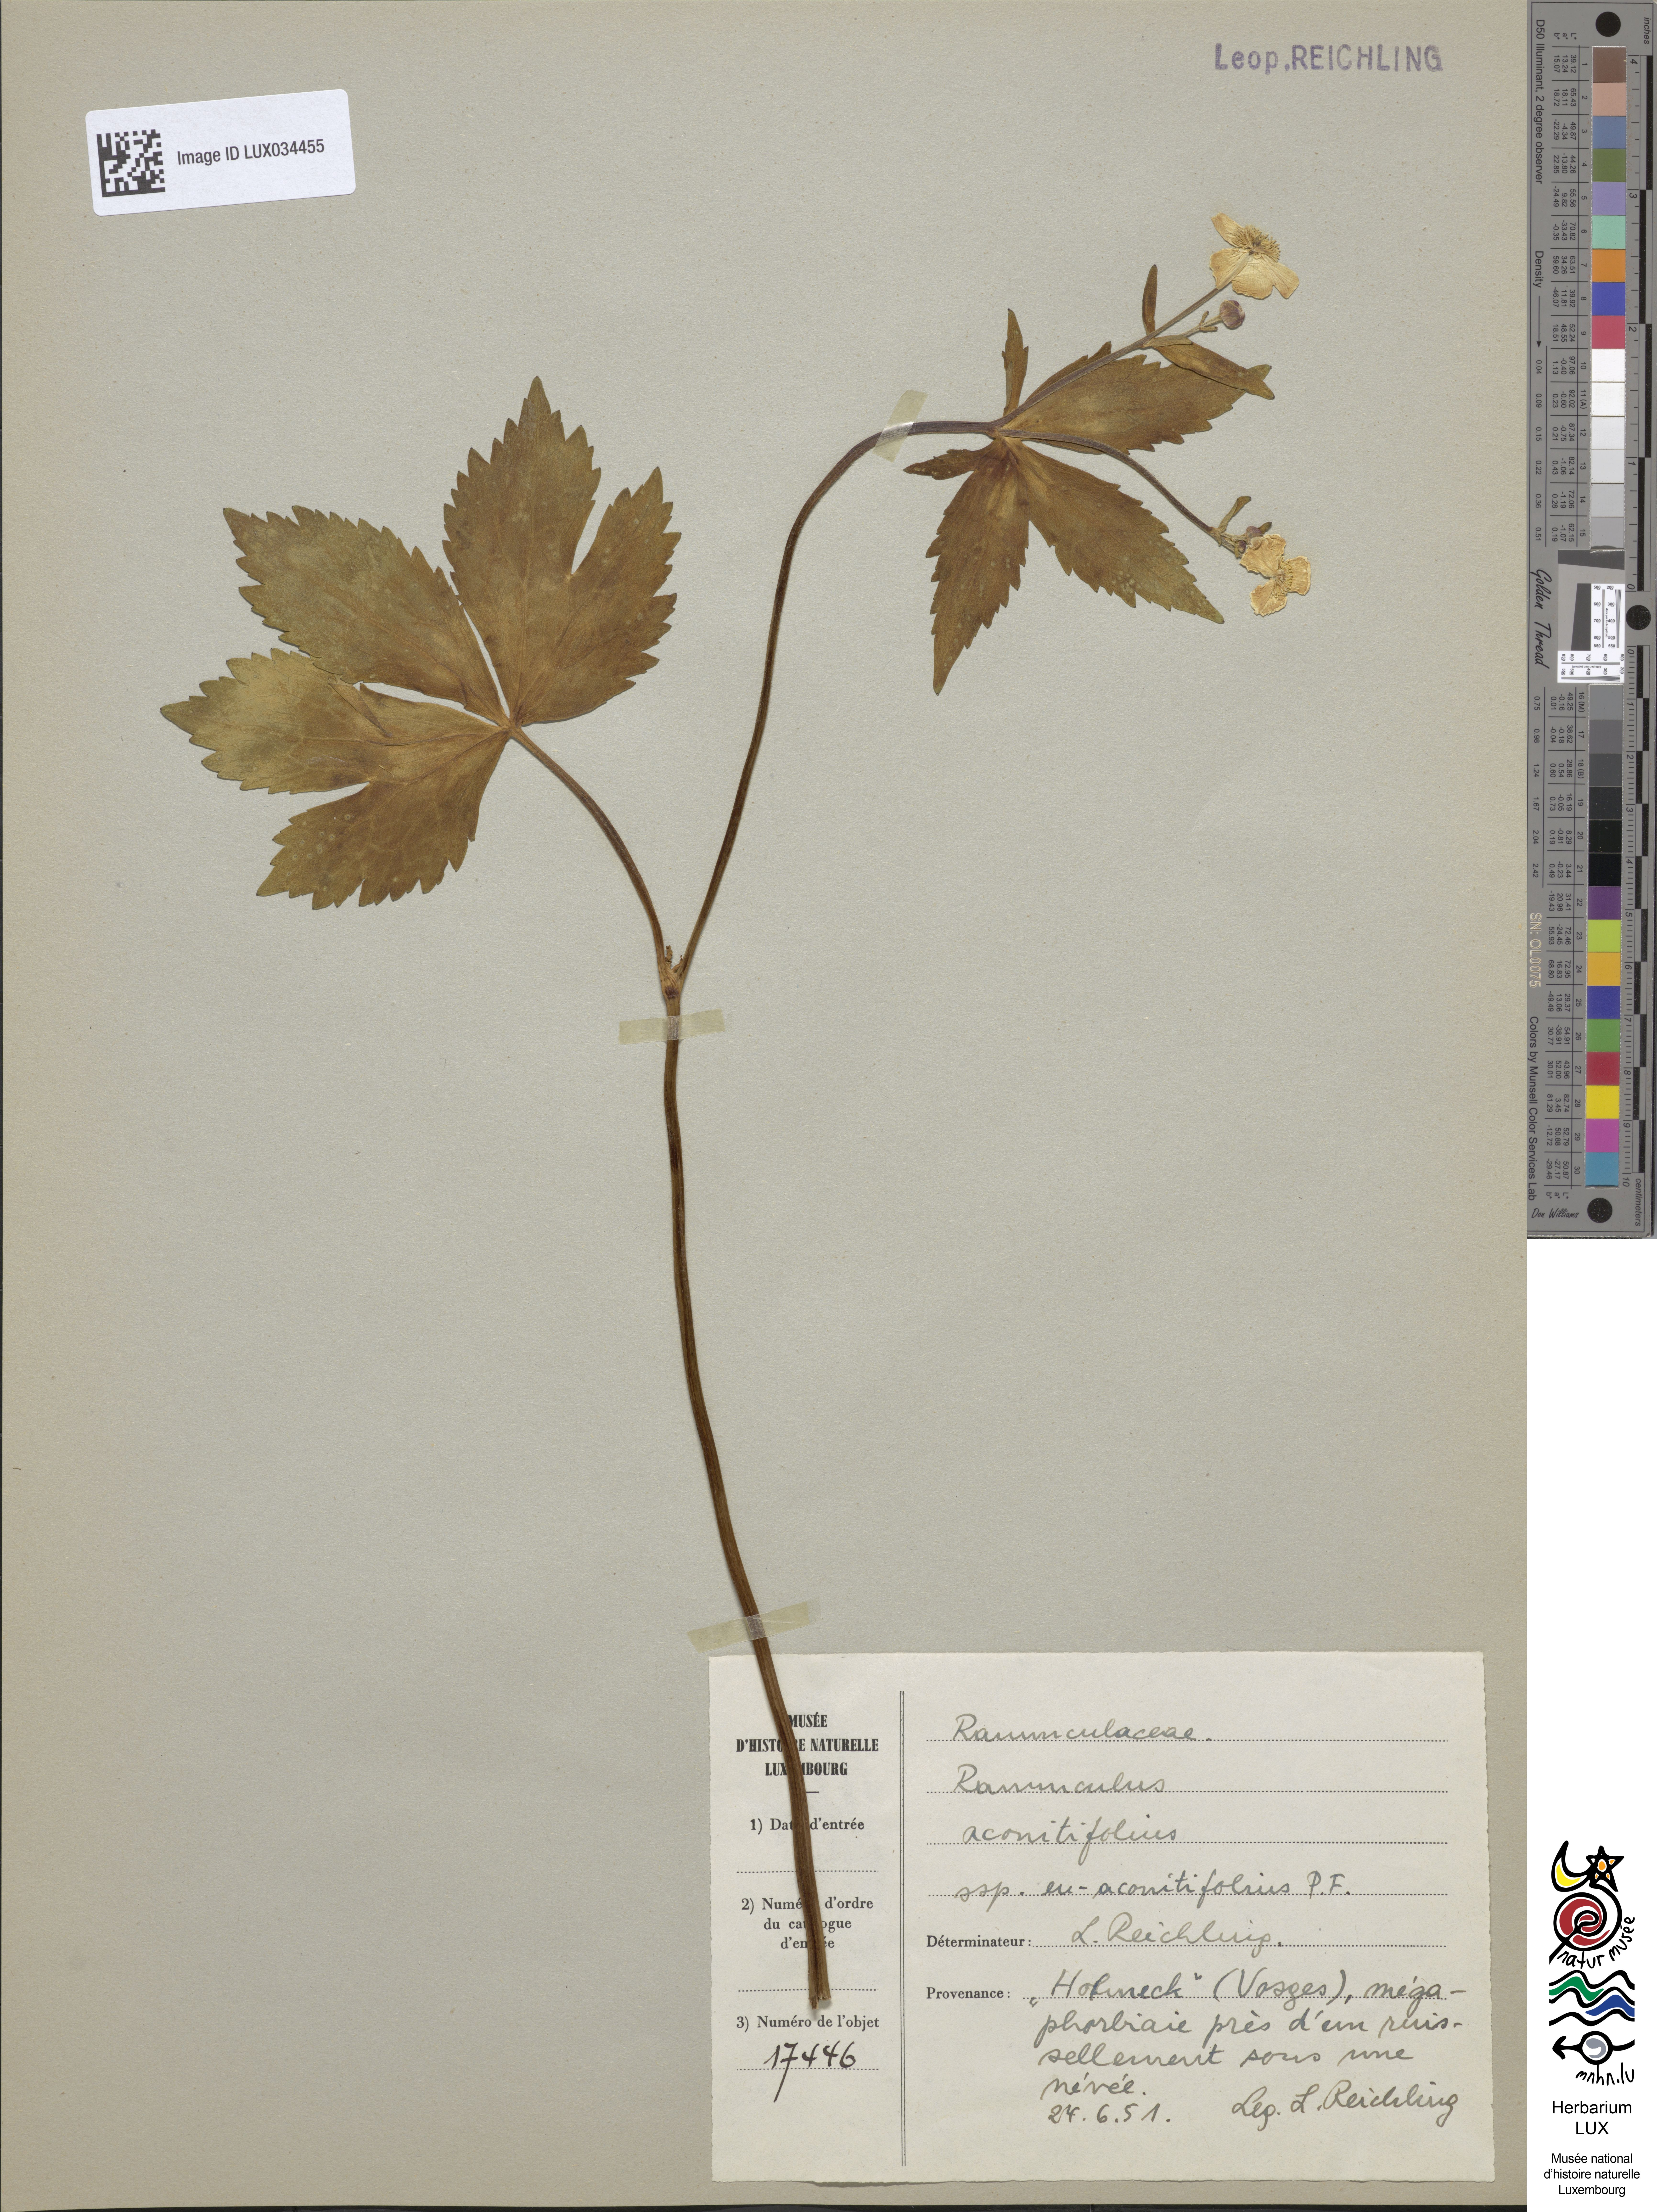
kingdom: Plantae
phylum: Tracheophyta
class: Magnoliopsida
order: Ranunculales
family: Ranunculaceae
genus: Ranunculus
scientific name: Ranunculus aconitifolius
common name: Aconite-leaved buttercup
